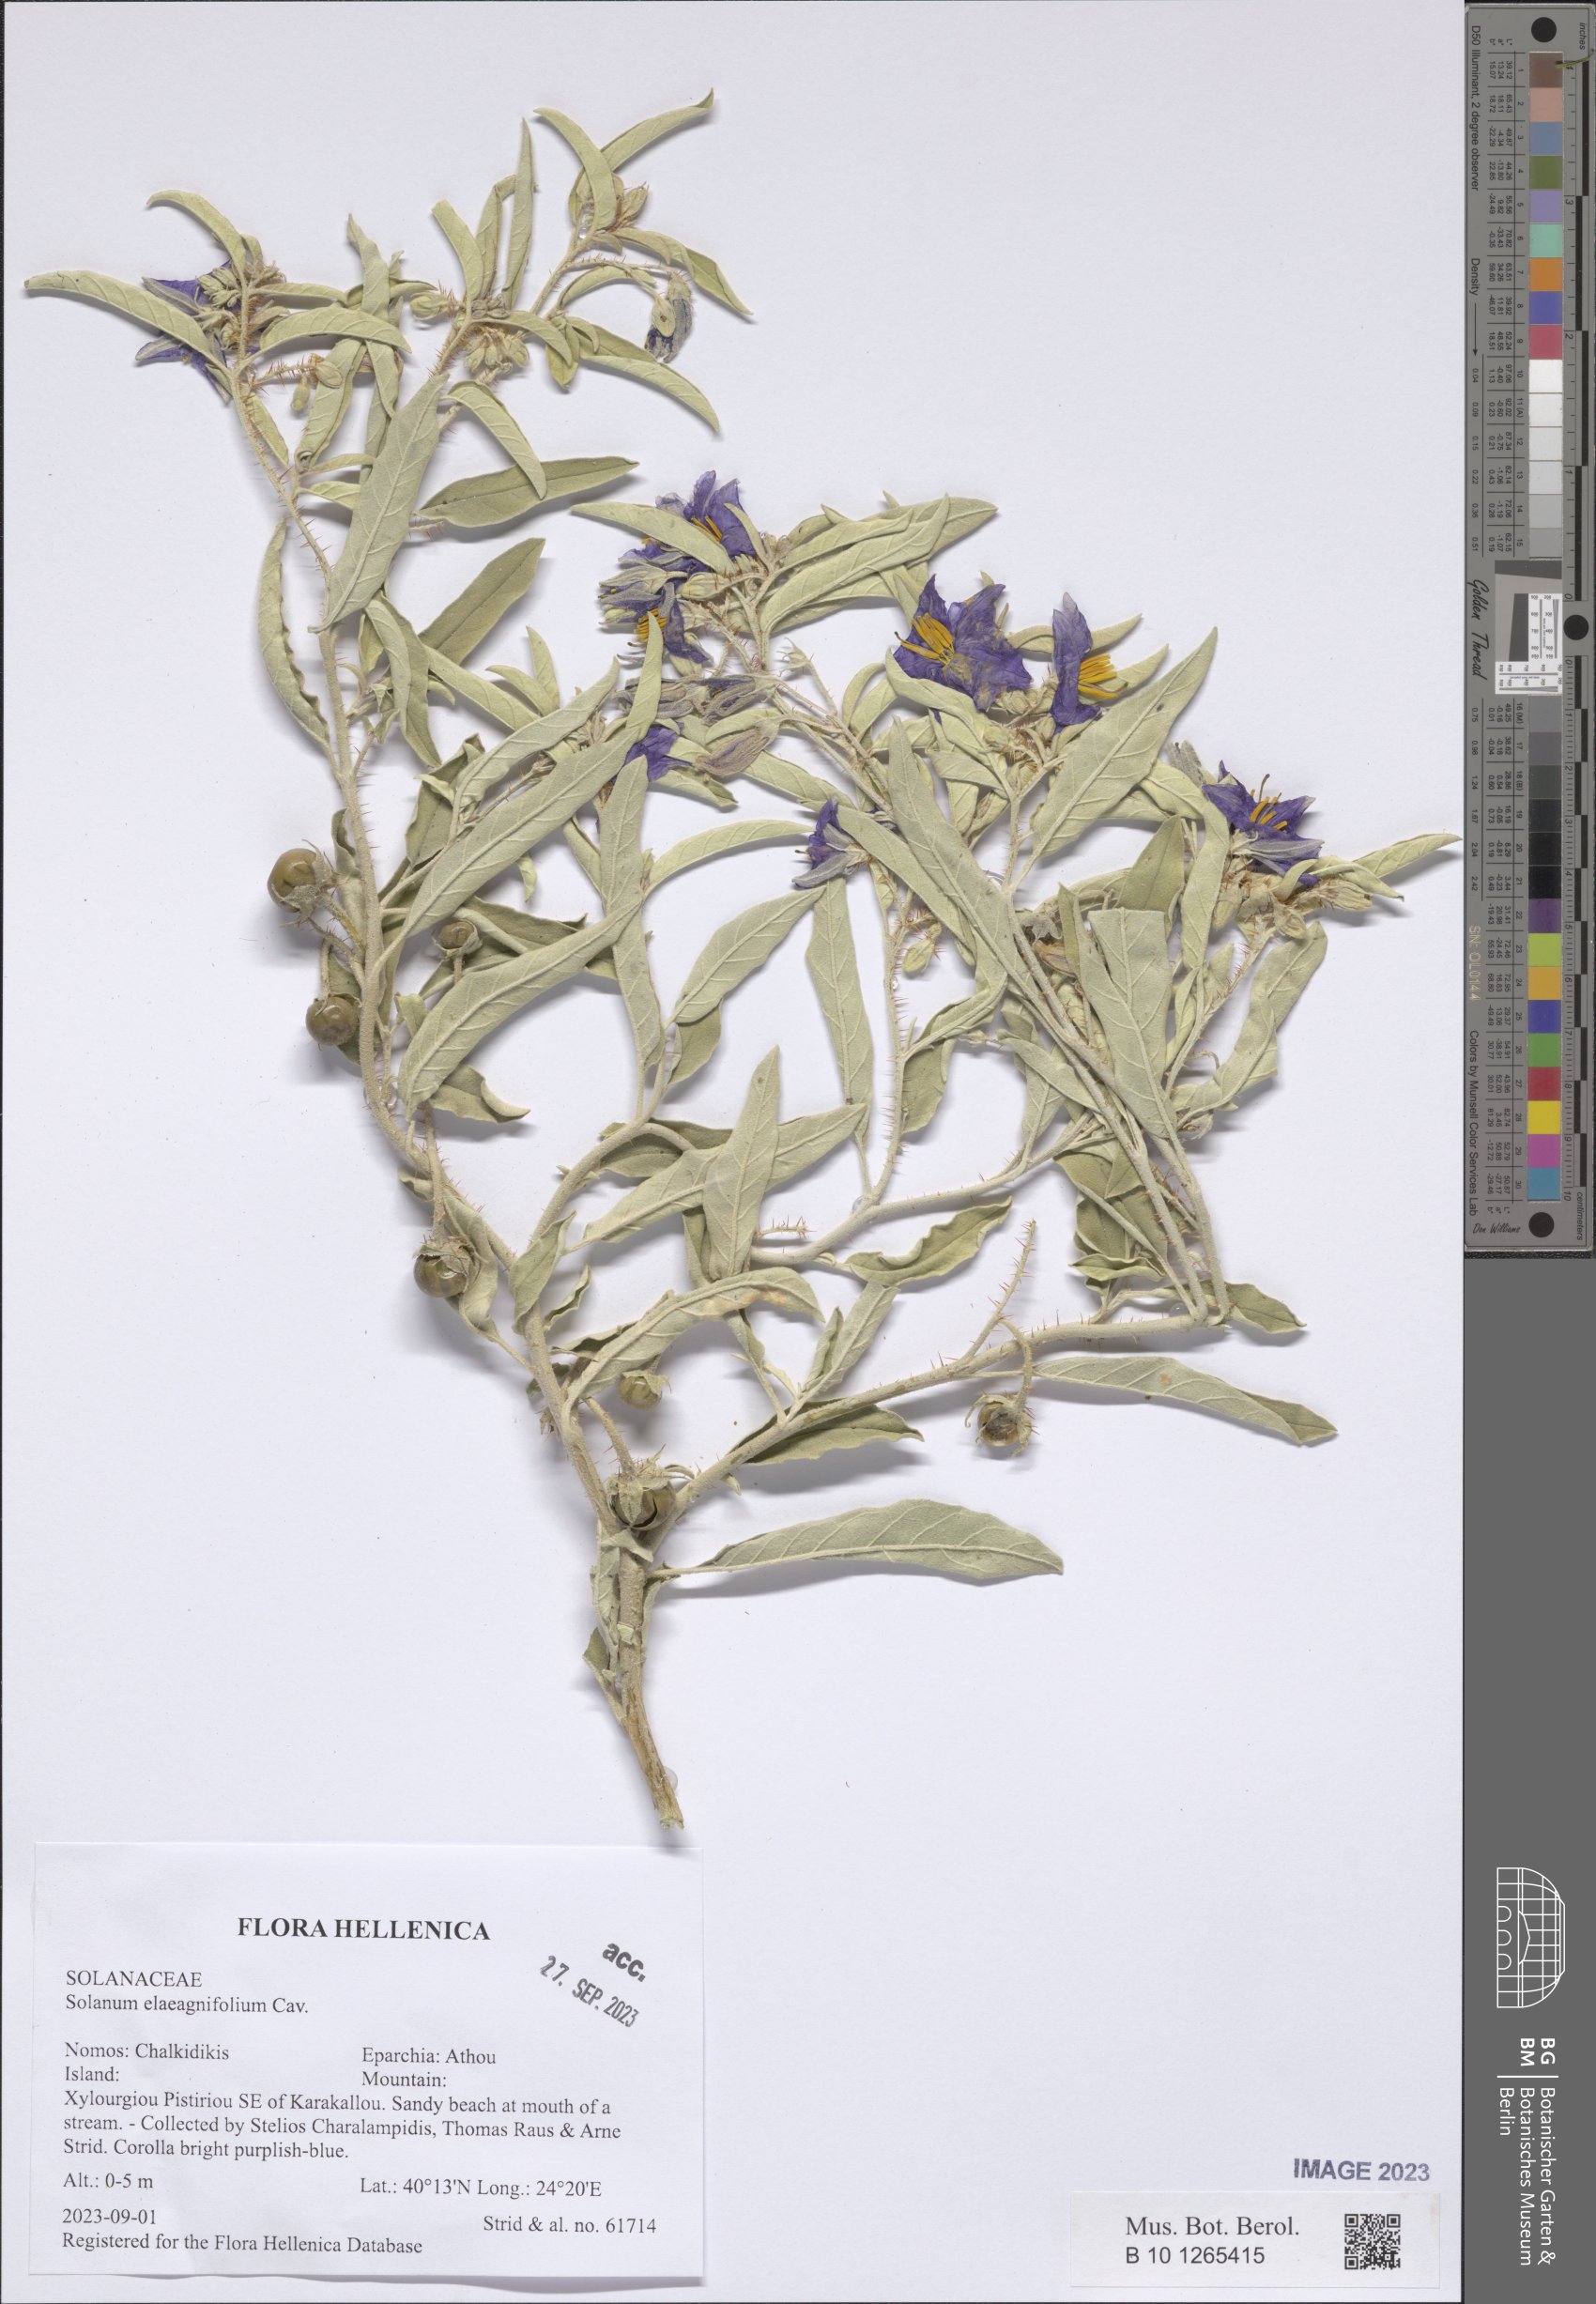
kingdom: Plantae
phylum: Tracheophyta
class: Magnoliopsida
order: Solanales
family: Solanaceae
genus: Solanum
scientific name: Solanum elaeagnifolium
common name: Silverleaf nightshade
